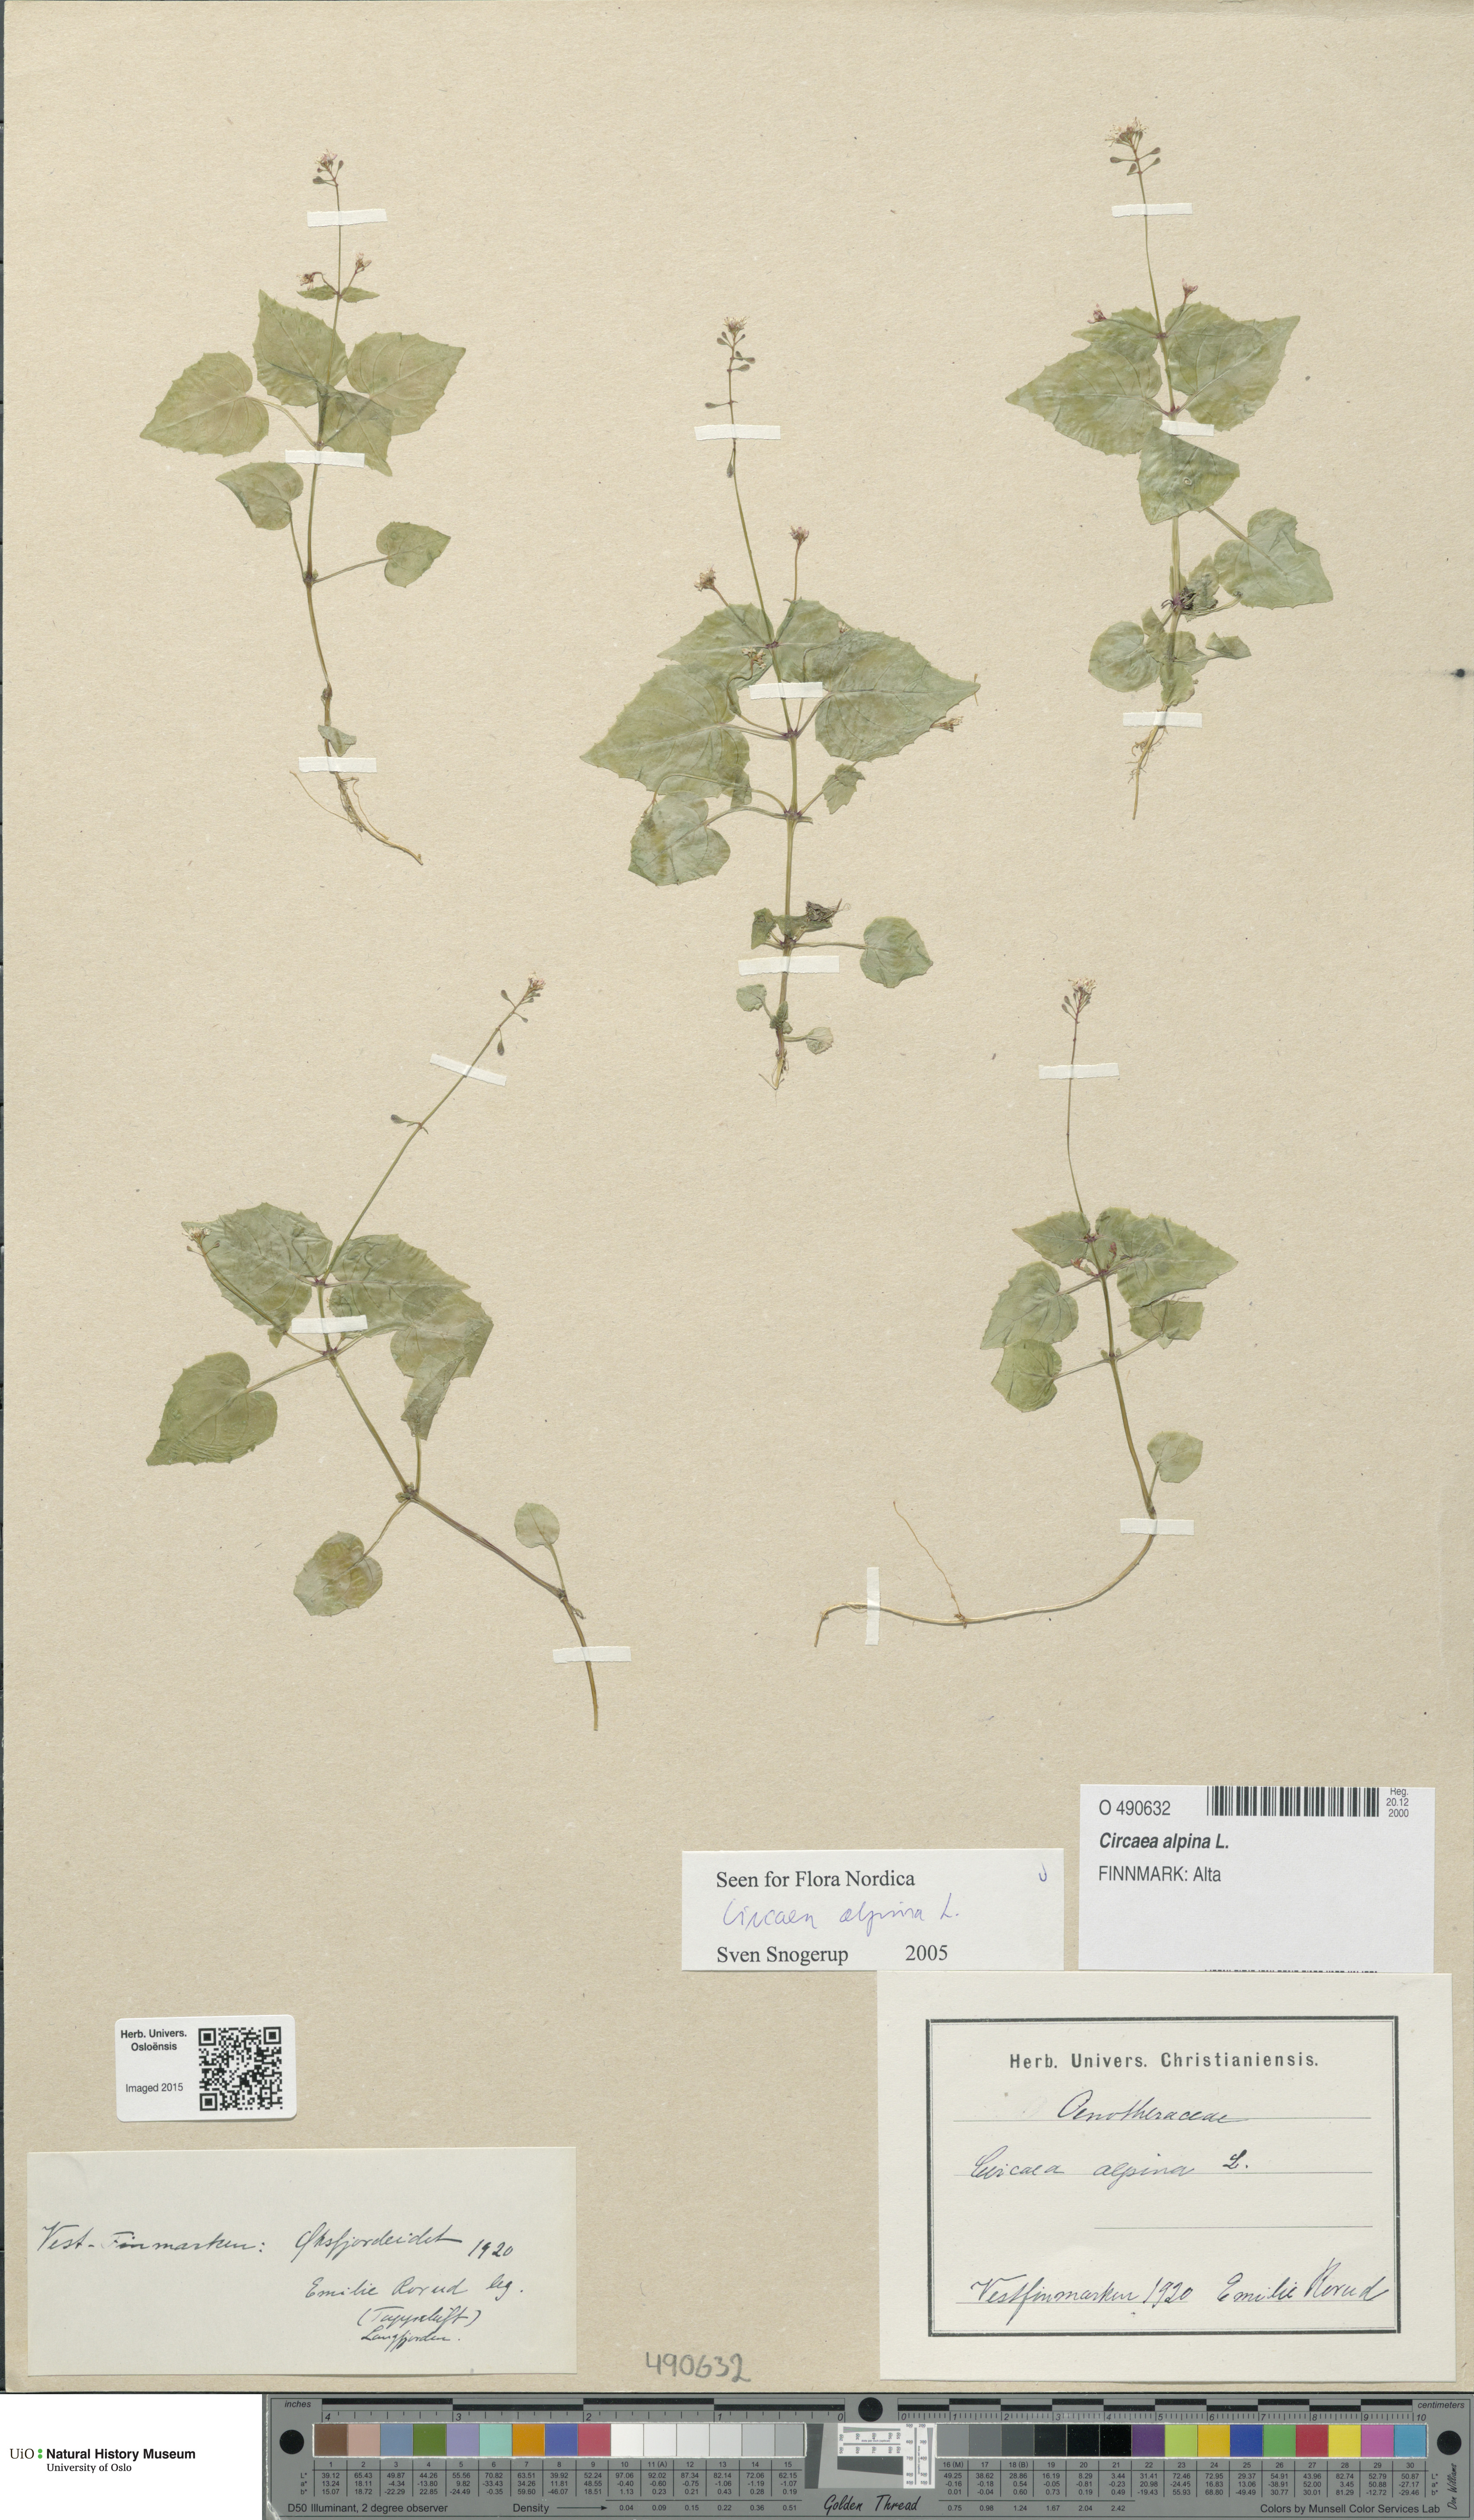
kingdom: Plantae
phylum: Tracheophyta
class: Magnoliopsida
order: Myrtales
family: Onagraceae
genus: Circaea
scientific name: Circaea alpina
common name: Alpine enchanter's-nightshade
